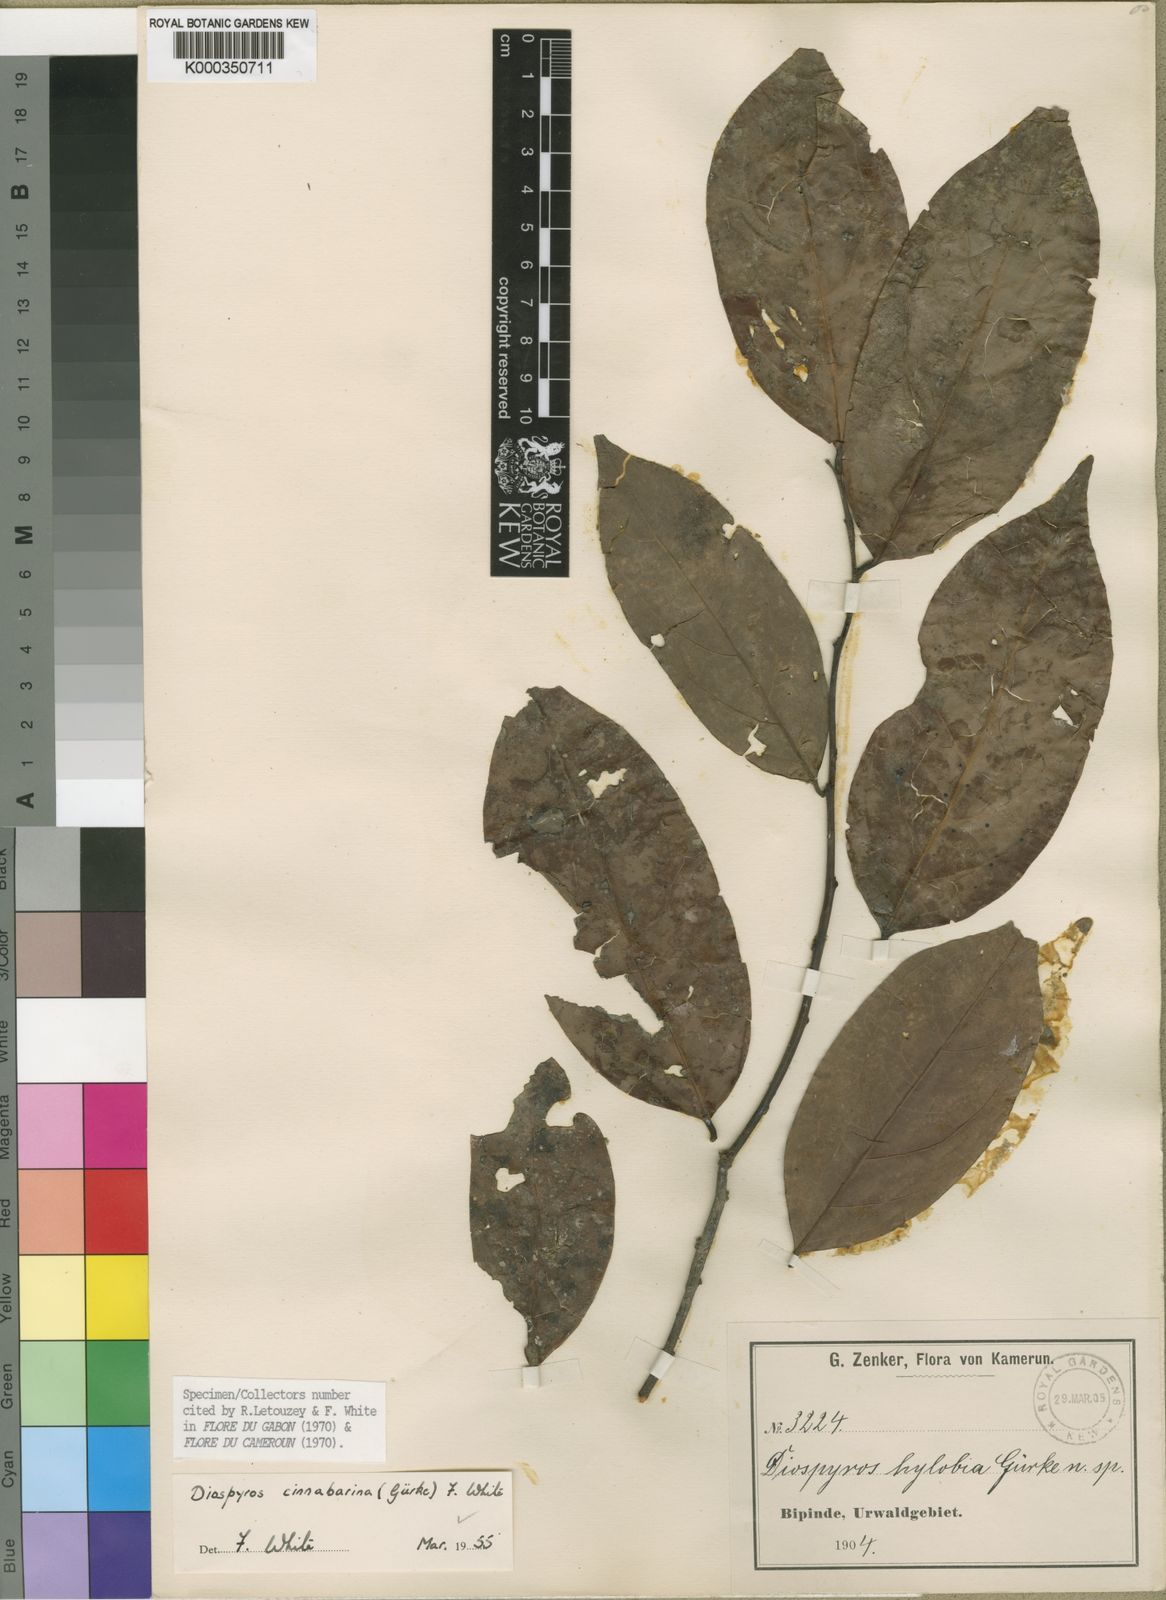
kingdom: Plantae
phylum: Tracheophyta
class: Magnoliopsida
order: Ericales
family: Ebenaceae
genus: Diospyros
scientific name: Diospyros
